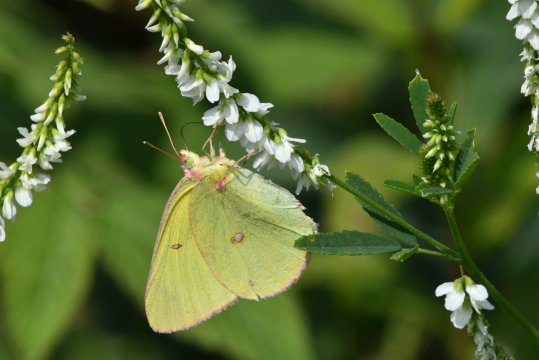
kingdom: Animalia
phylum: Arthropoda
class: Insecta
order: Lepidoptera
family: Pieridae
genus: Colias
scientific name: Colias interior
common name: Pink-edged Sulphur
